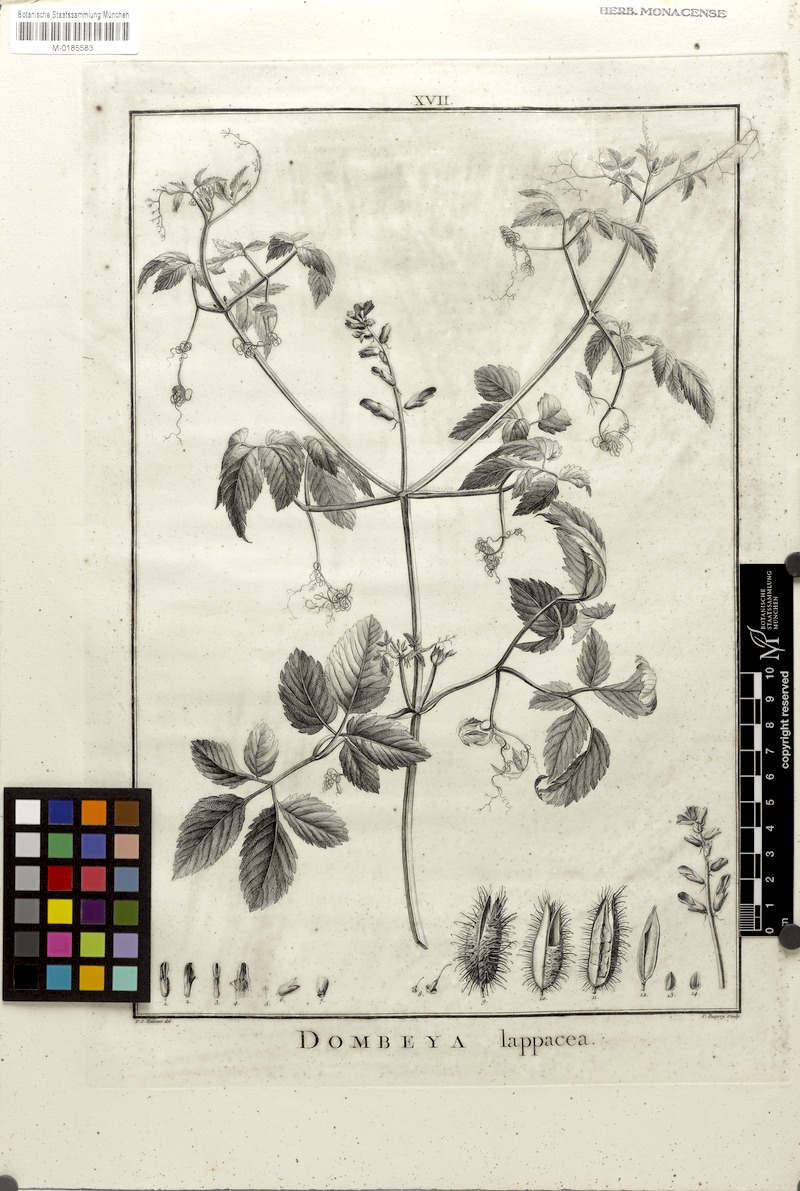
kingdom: Plantae
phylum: Tracheophyta
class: Magnoliopsida
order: Lamiales
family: Bignoniaceae
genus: Tourrettia
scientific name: Tourrettia lappacea
